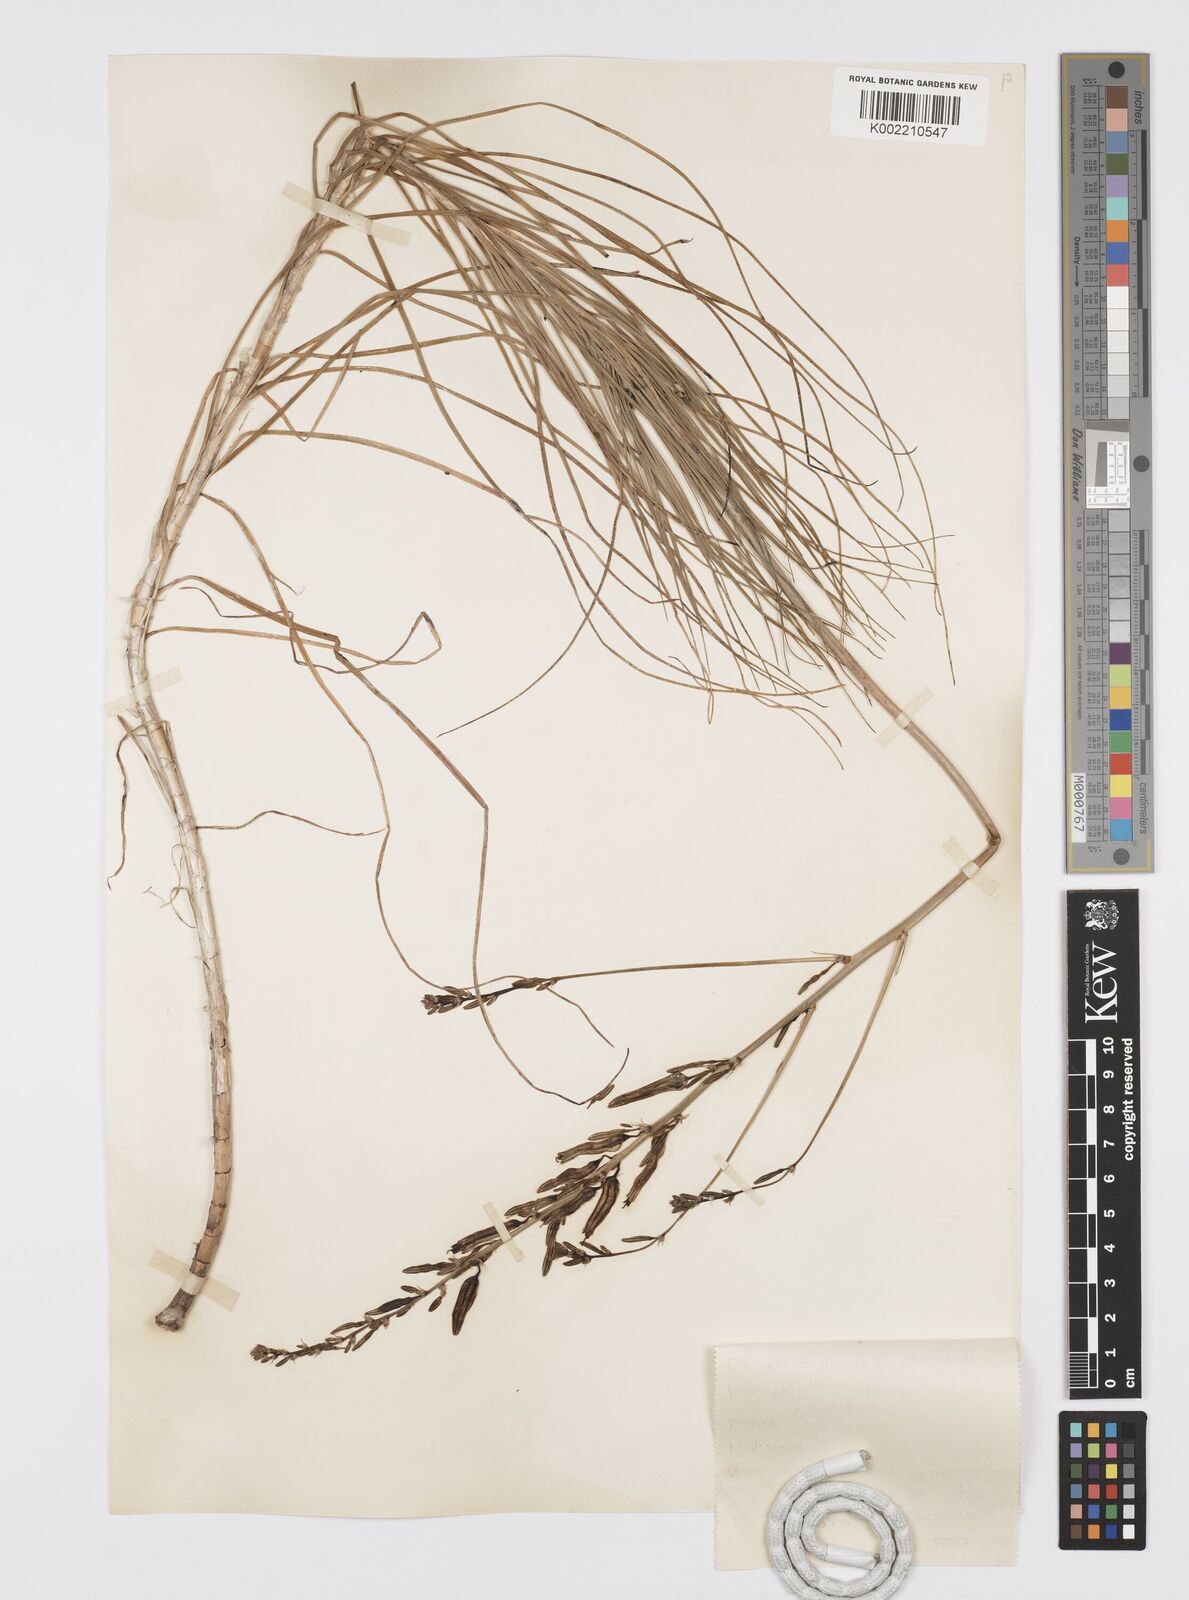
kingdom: Plantae
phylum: Tracheophyta
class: Liliopsida
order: Asparagales
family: Asphodelaceae
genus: Asphodeline
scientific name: Asphodeline liburnica
